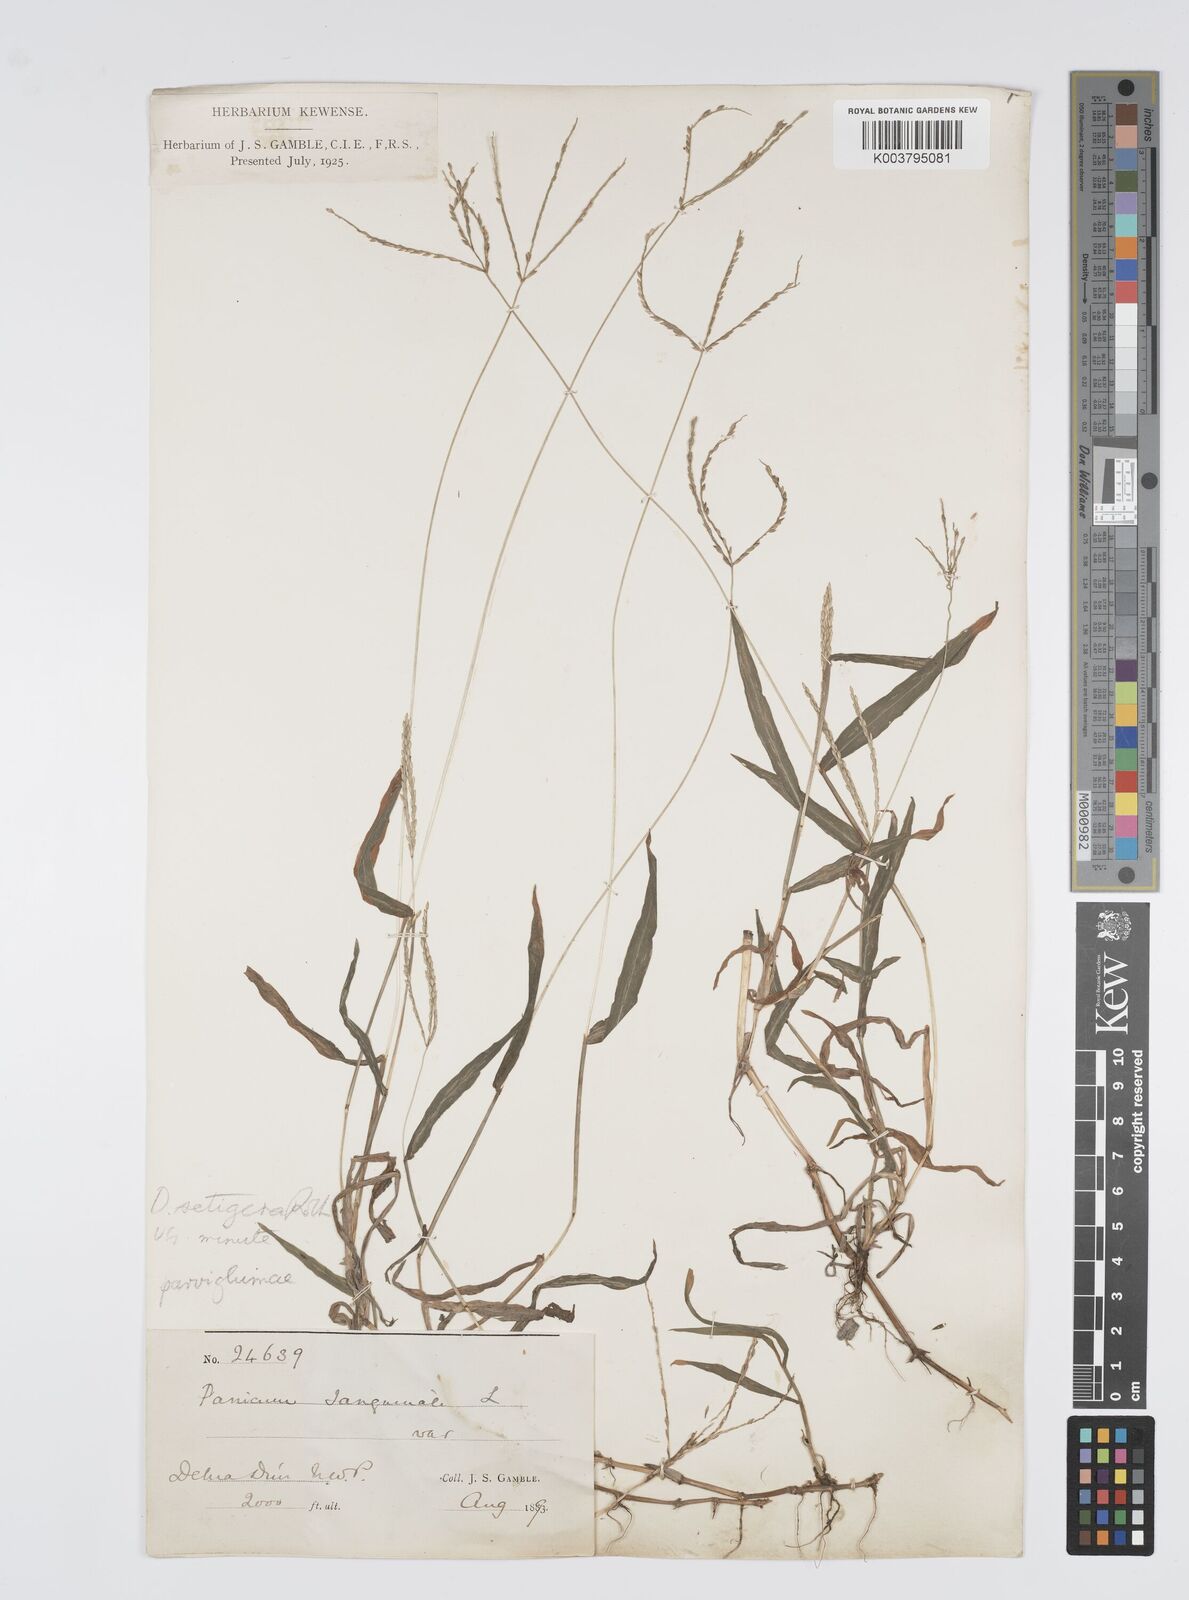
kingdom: Plantae
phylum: Tracheophyta
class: Liliopsida
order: Poales
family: Poaceae
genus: Digitaria
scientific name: Digitaria setigera
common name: East indian crabgrass
